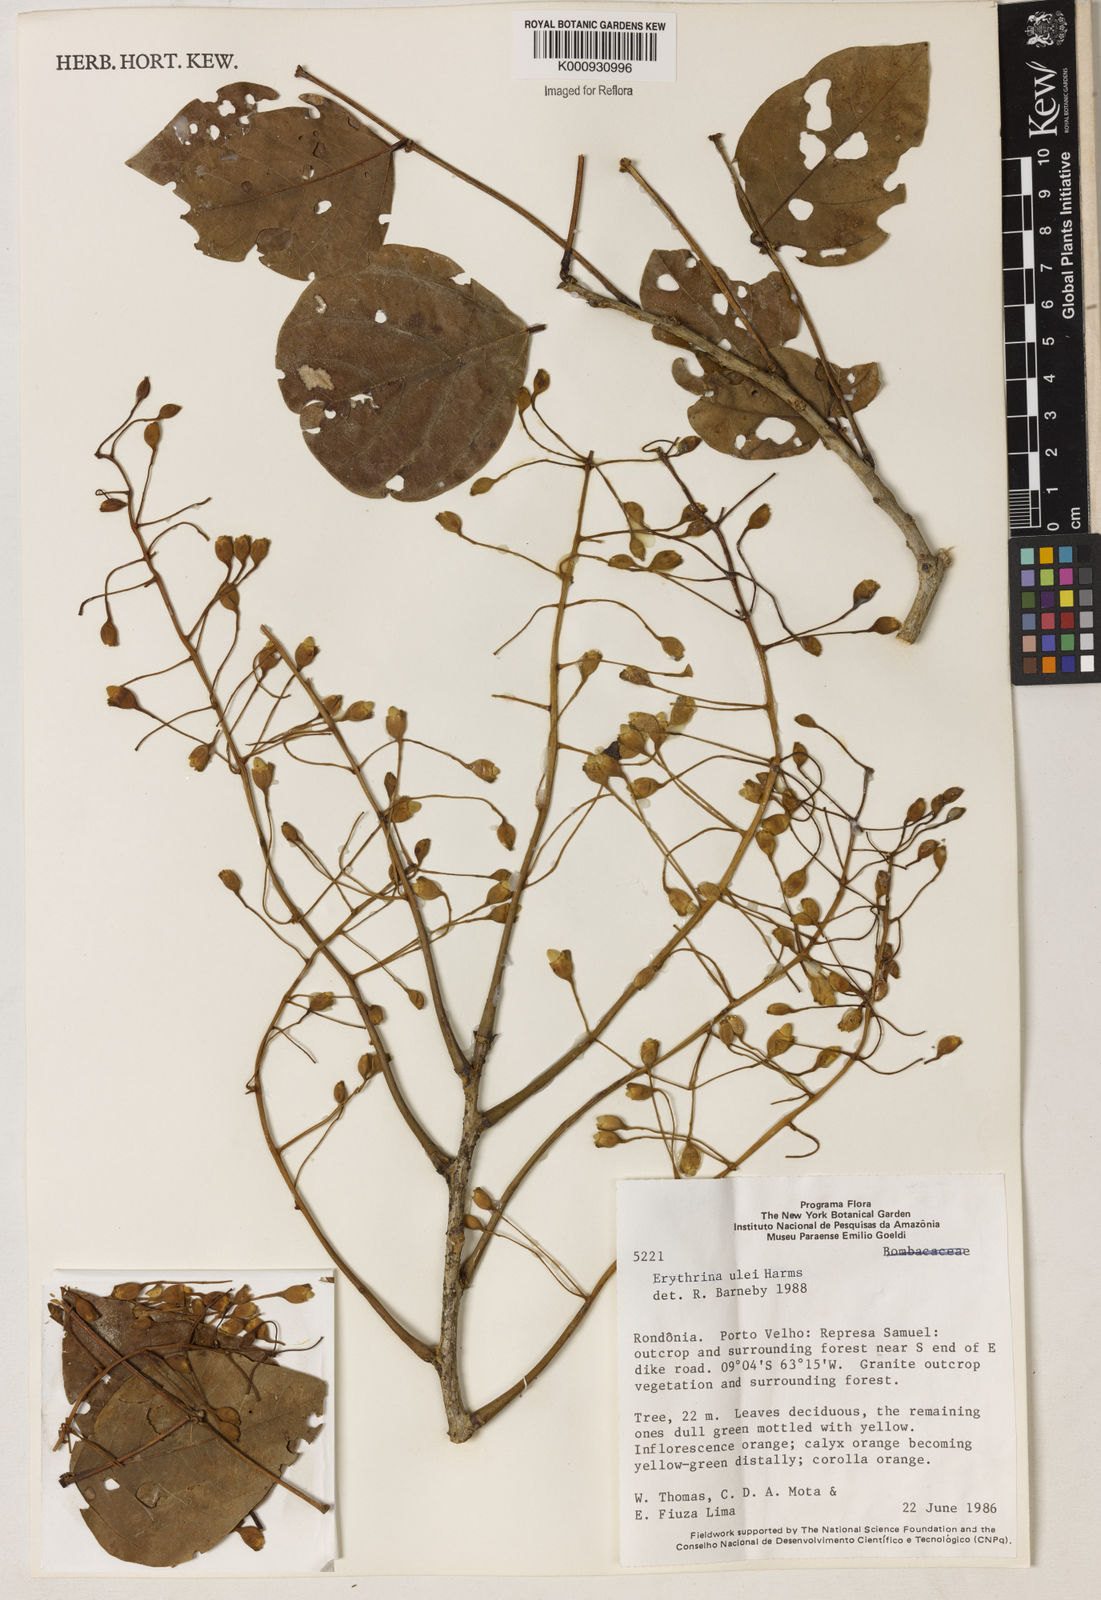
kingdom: Plantae
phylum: Tracheophyta
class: Magnoliopsida
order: Fabales
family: Fabaceae
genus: Erythrina
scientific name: Erythrina ulei
